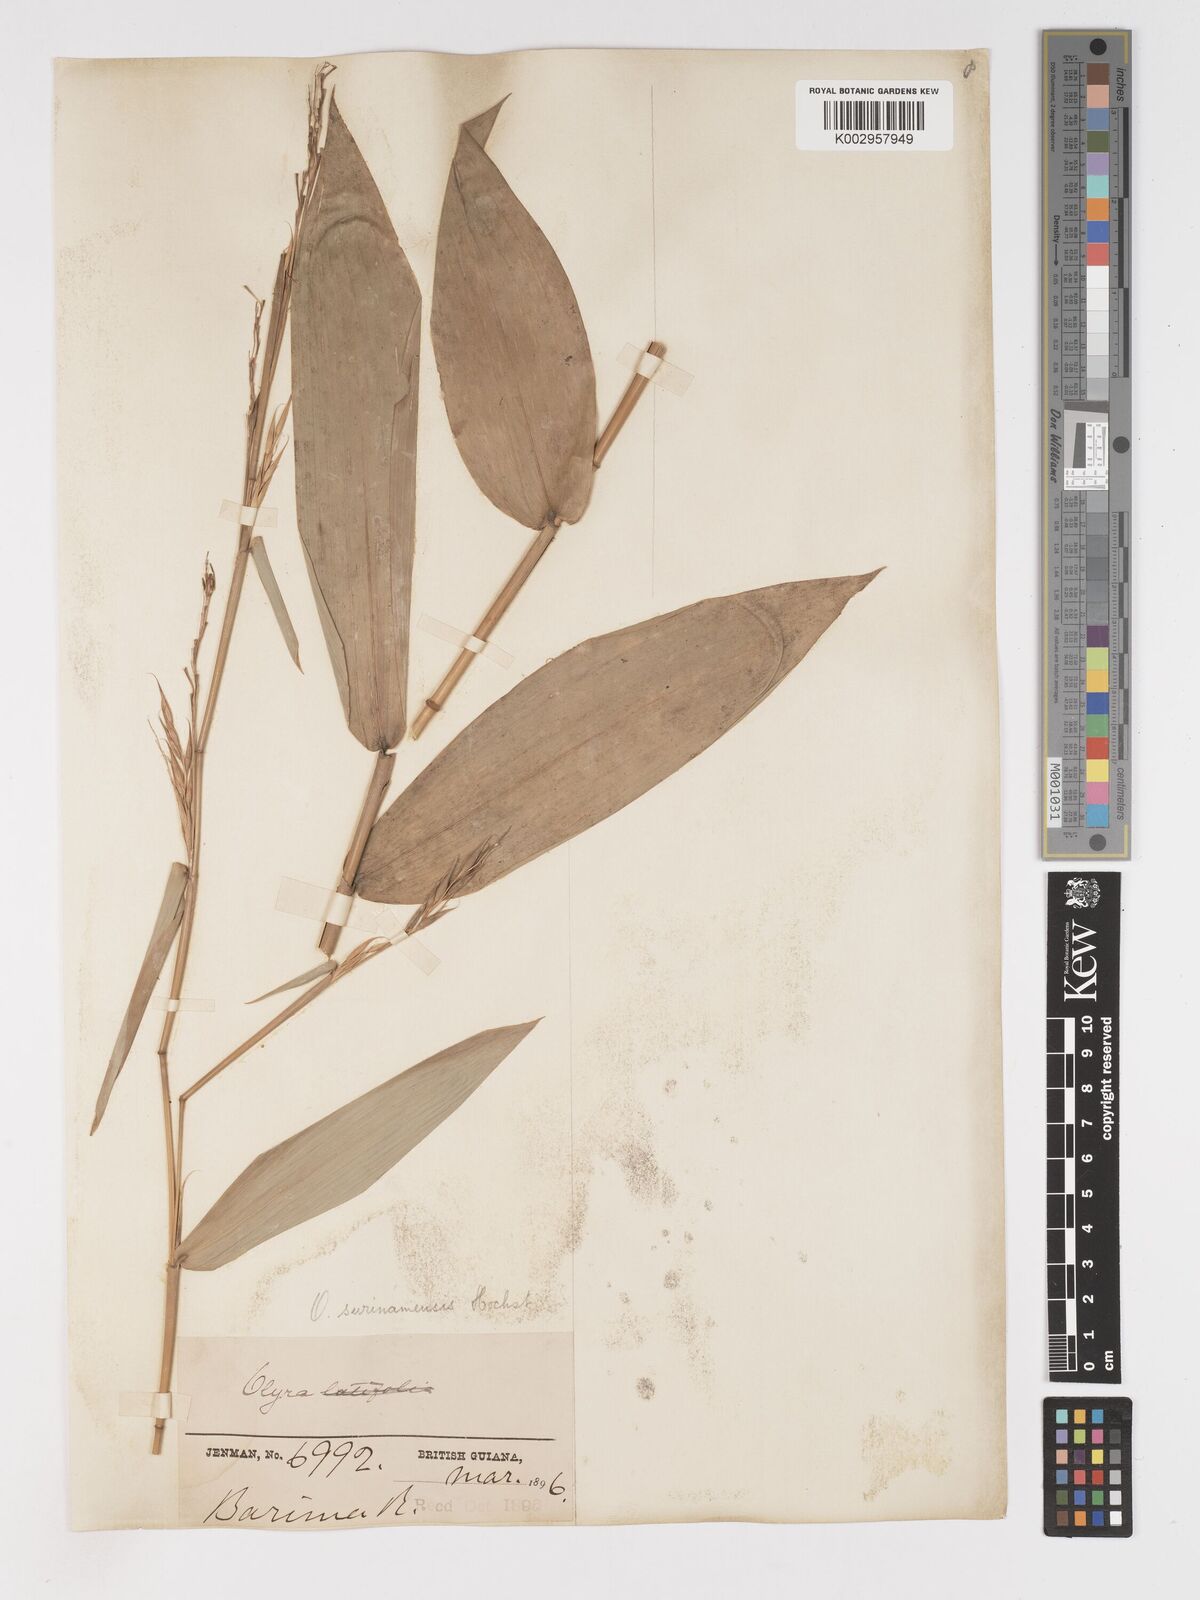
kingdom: Plantae
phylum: Tracheophyta
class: Liliopsida
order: Poales
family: Poaceae
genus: Olyra
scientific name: Olyra longifolia
